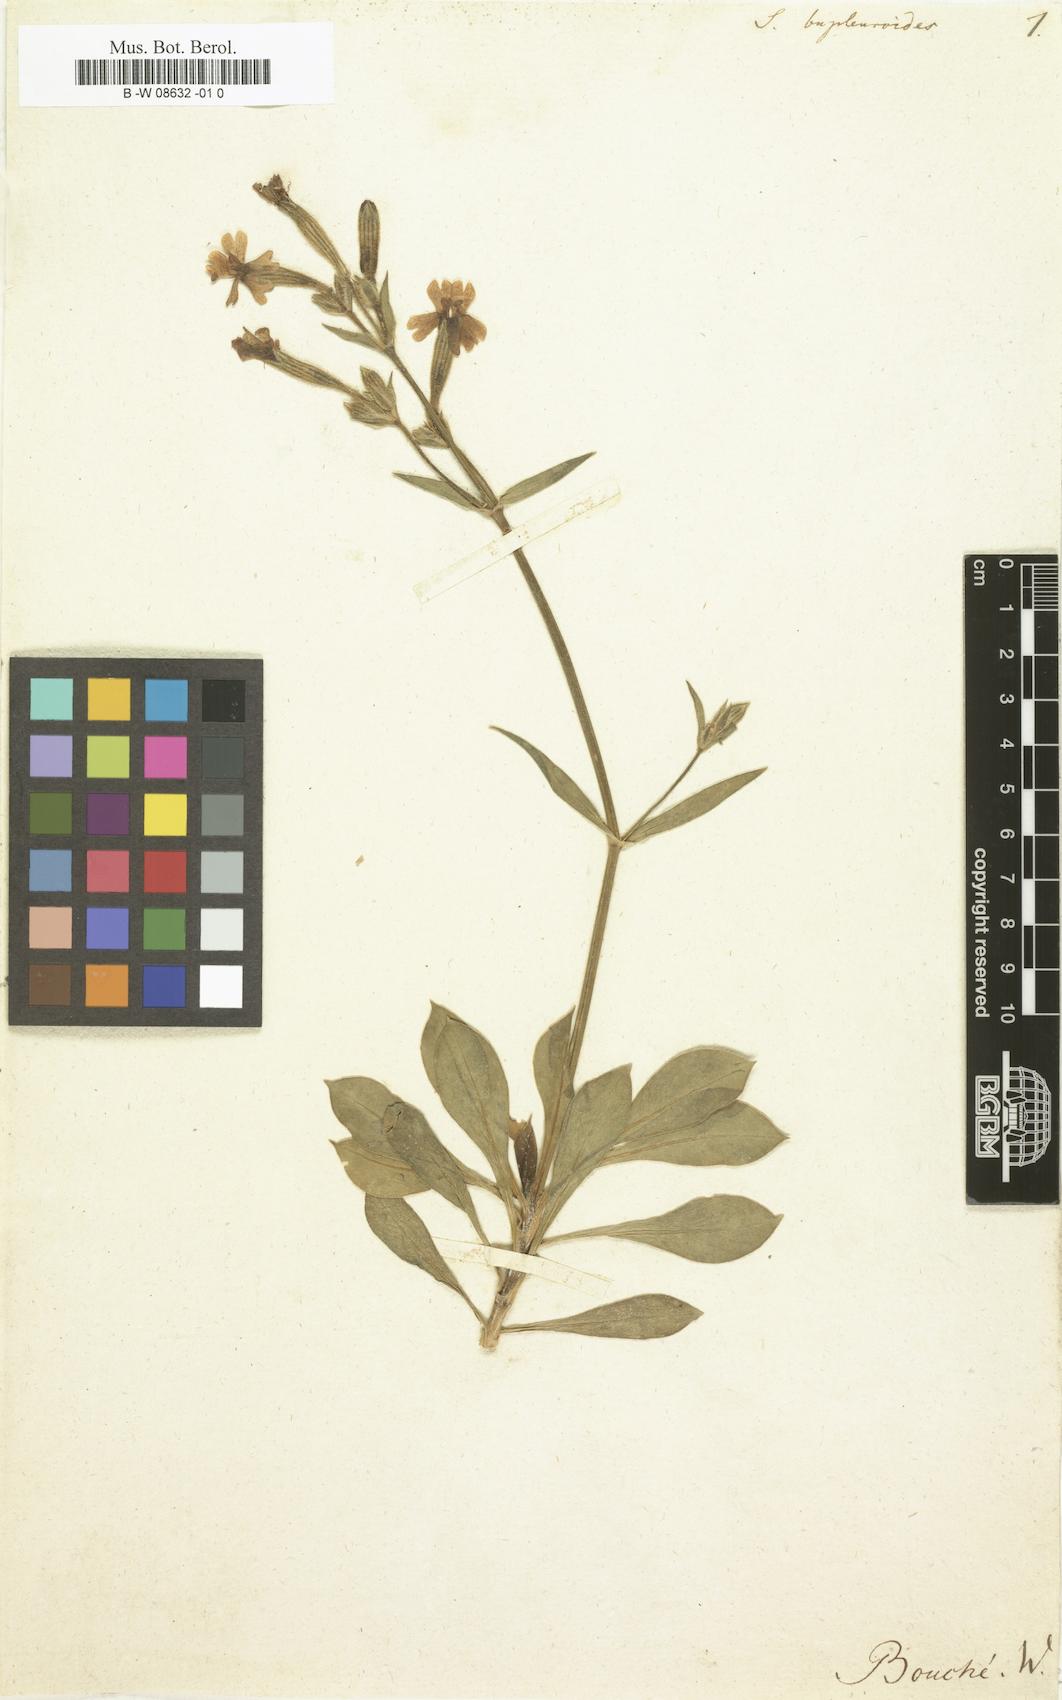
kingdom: Plantae
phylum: Tracheophyta
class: Magnoliopsida
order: Caryophyllales
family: Caryophyllaceae
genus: Silene
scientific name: Silene bupleuroides
